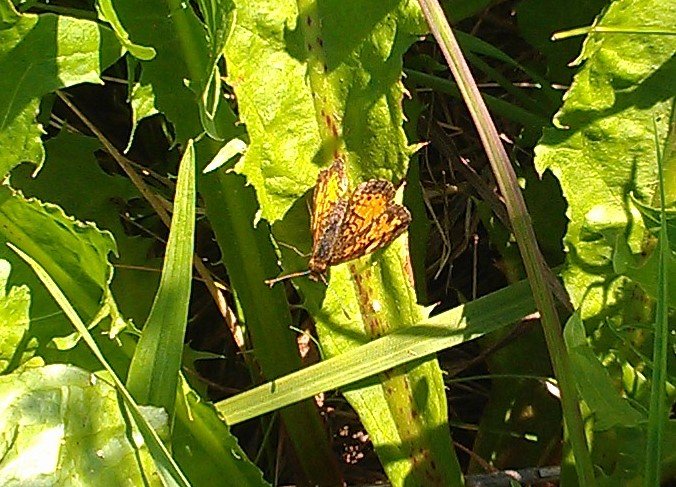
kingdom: Animalia
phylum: Arthropoda
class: Insecta
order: Lepidoptera
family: Nymphalidae
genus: Phyciodes
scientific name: Phyciodes tharos
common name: Northern Crescent
